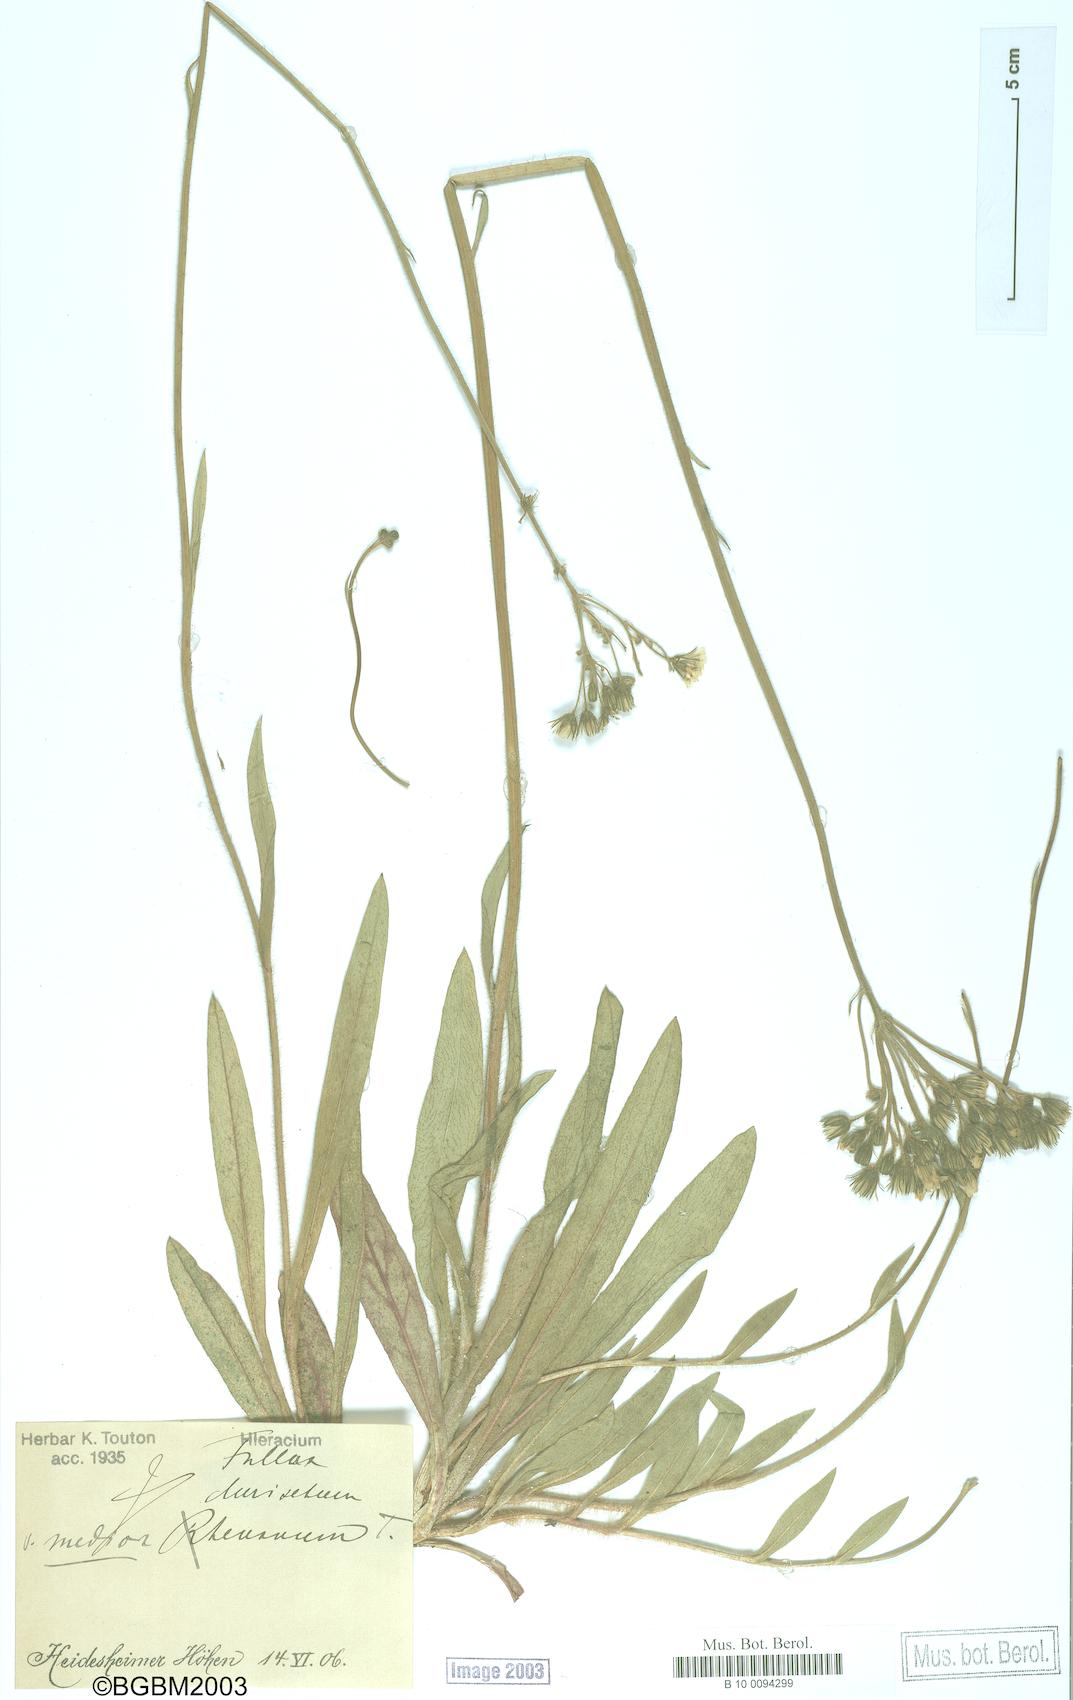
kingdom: Plantae
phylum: Tracheophyta
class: Magnoliopsida
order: Asterales
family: Asteraceae
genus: Hieracium
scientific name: Hieracium fallax
